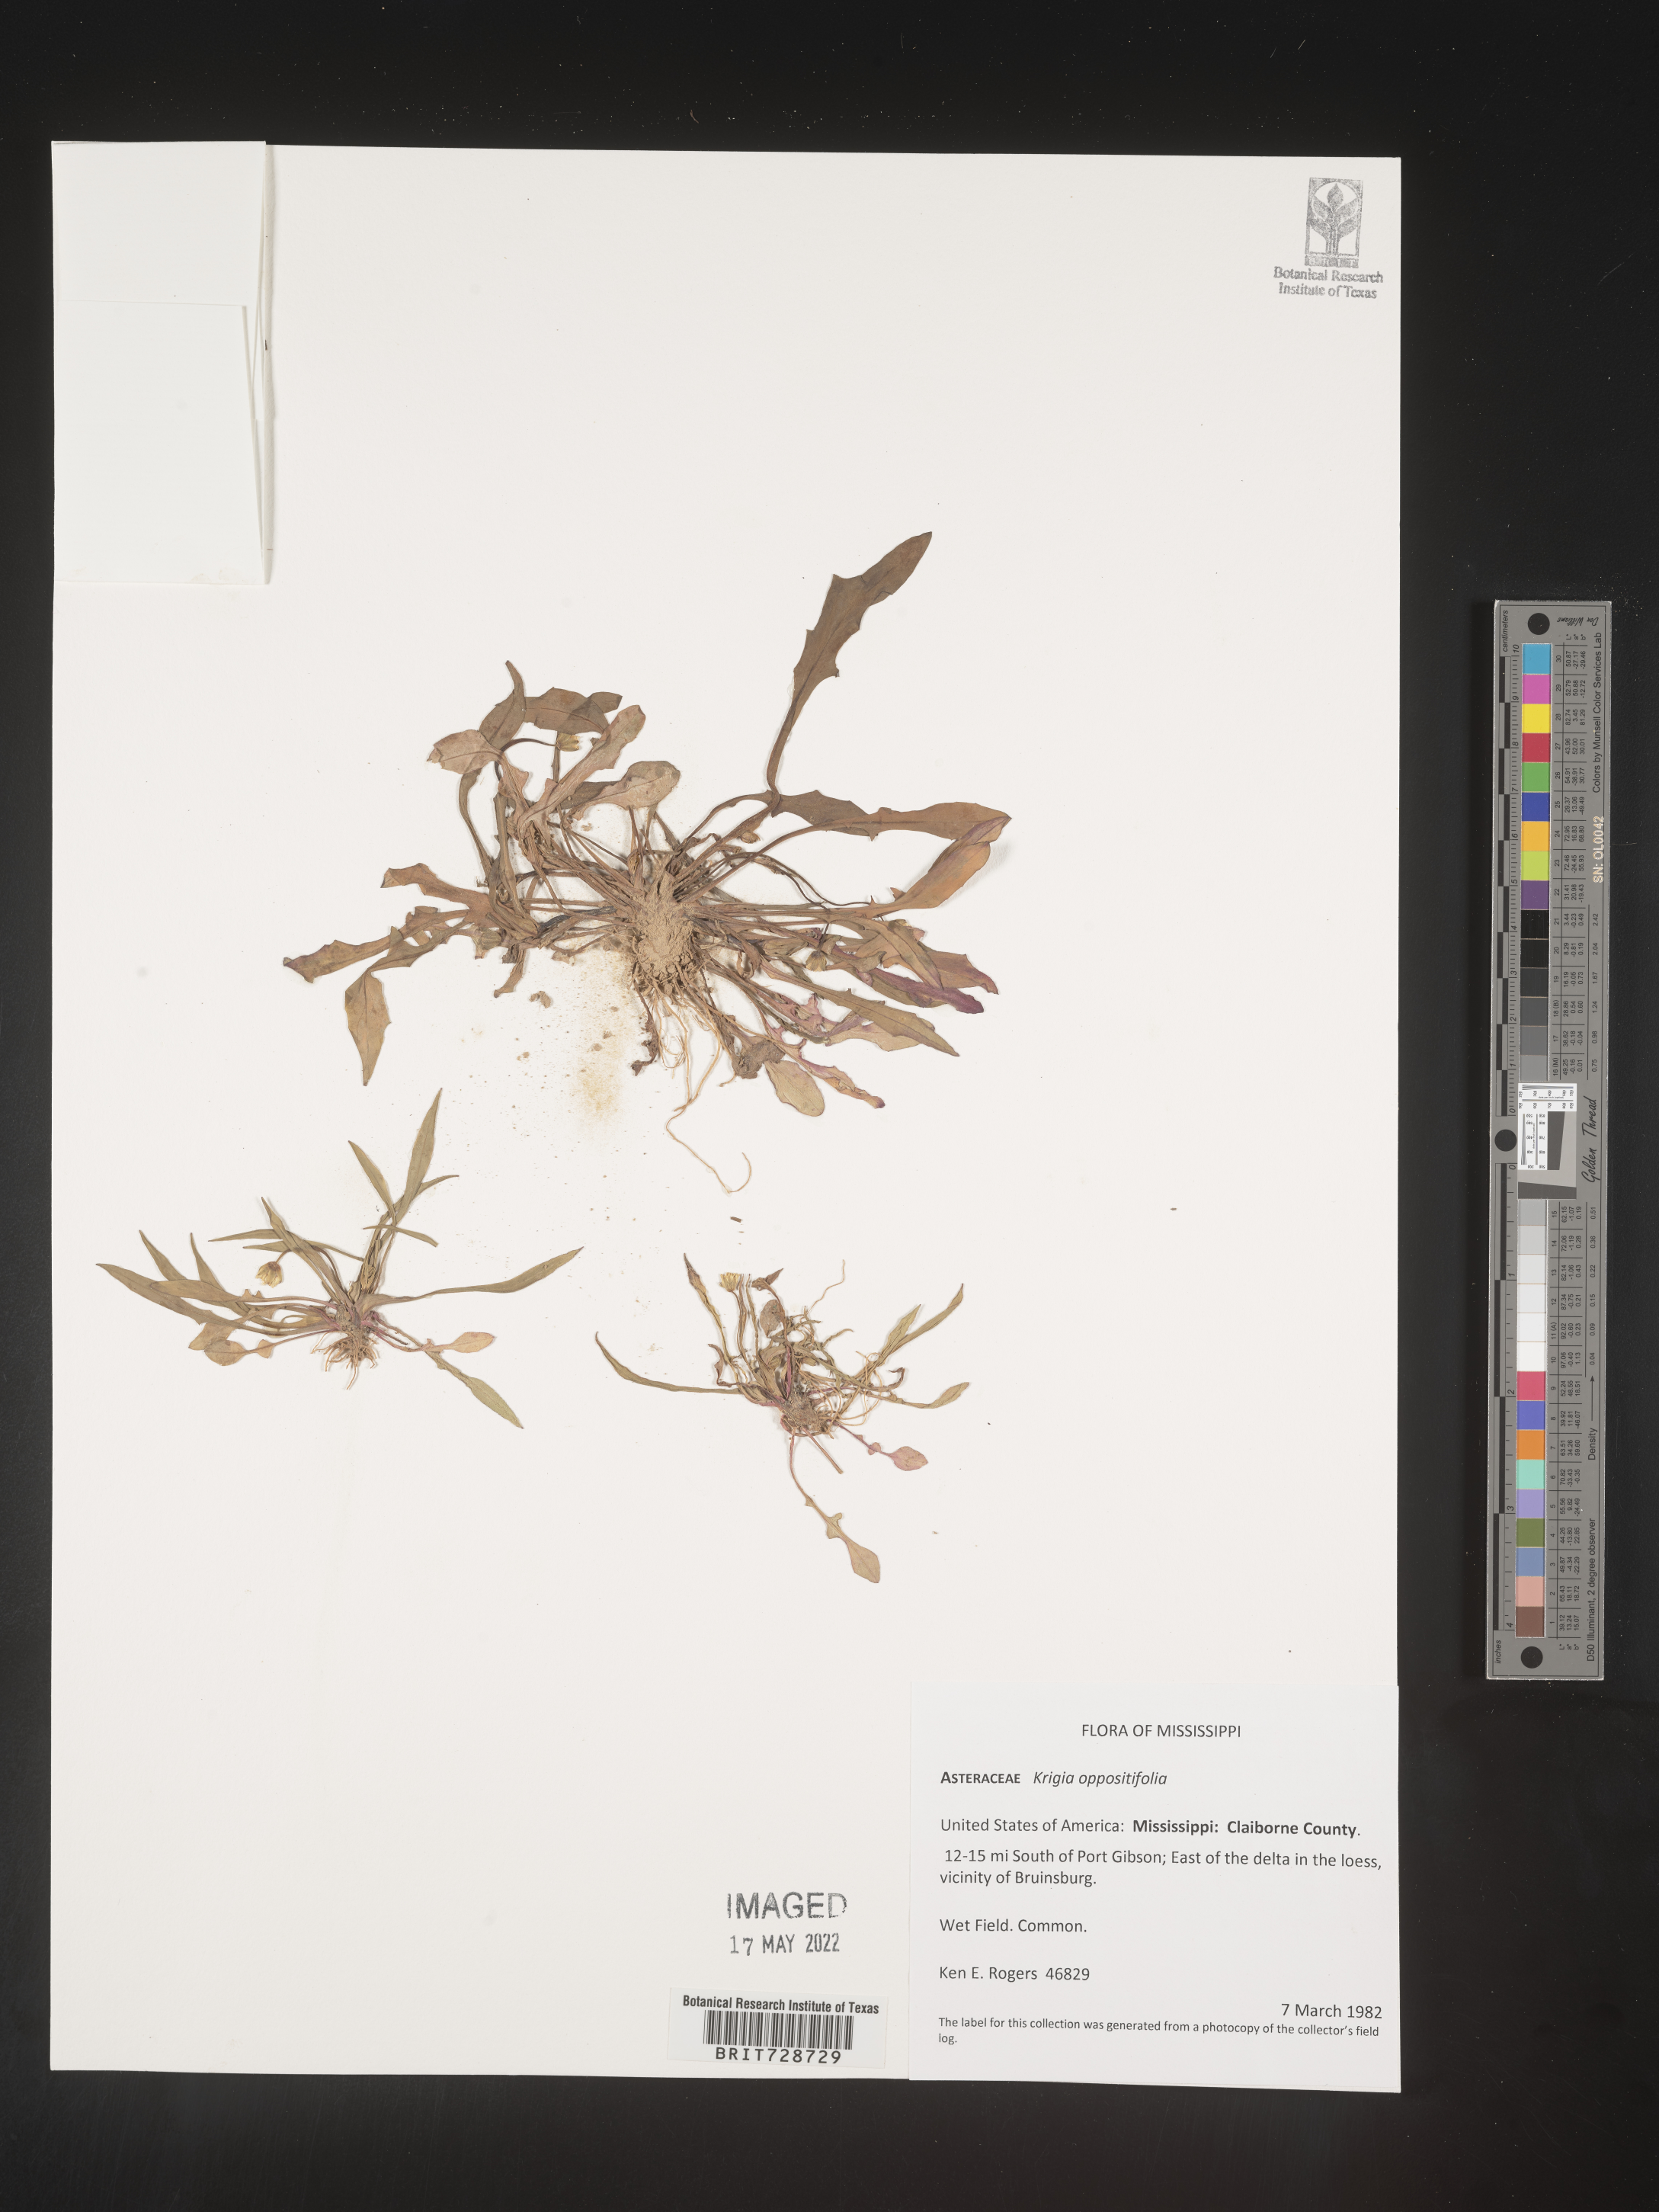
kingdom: Plantae
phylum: Tracheophyta
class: Magnoliopsida
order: Asterales
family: Asteraceae
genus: Krigia
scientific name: Krigia cespitosa
